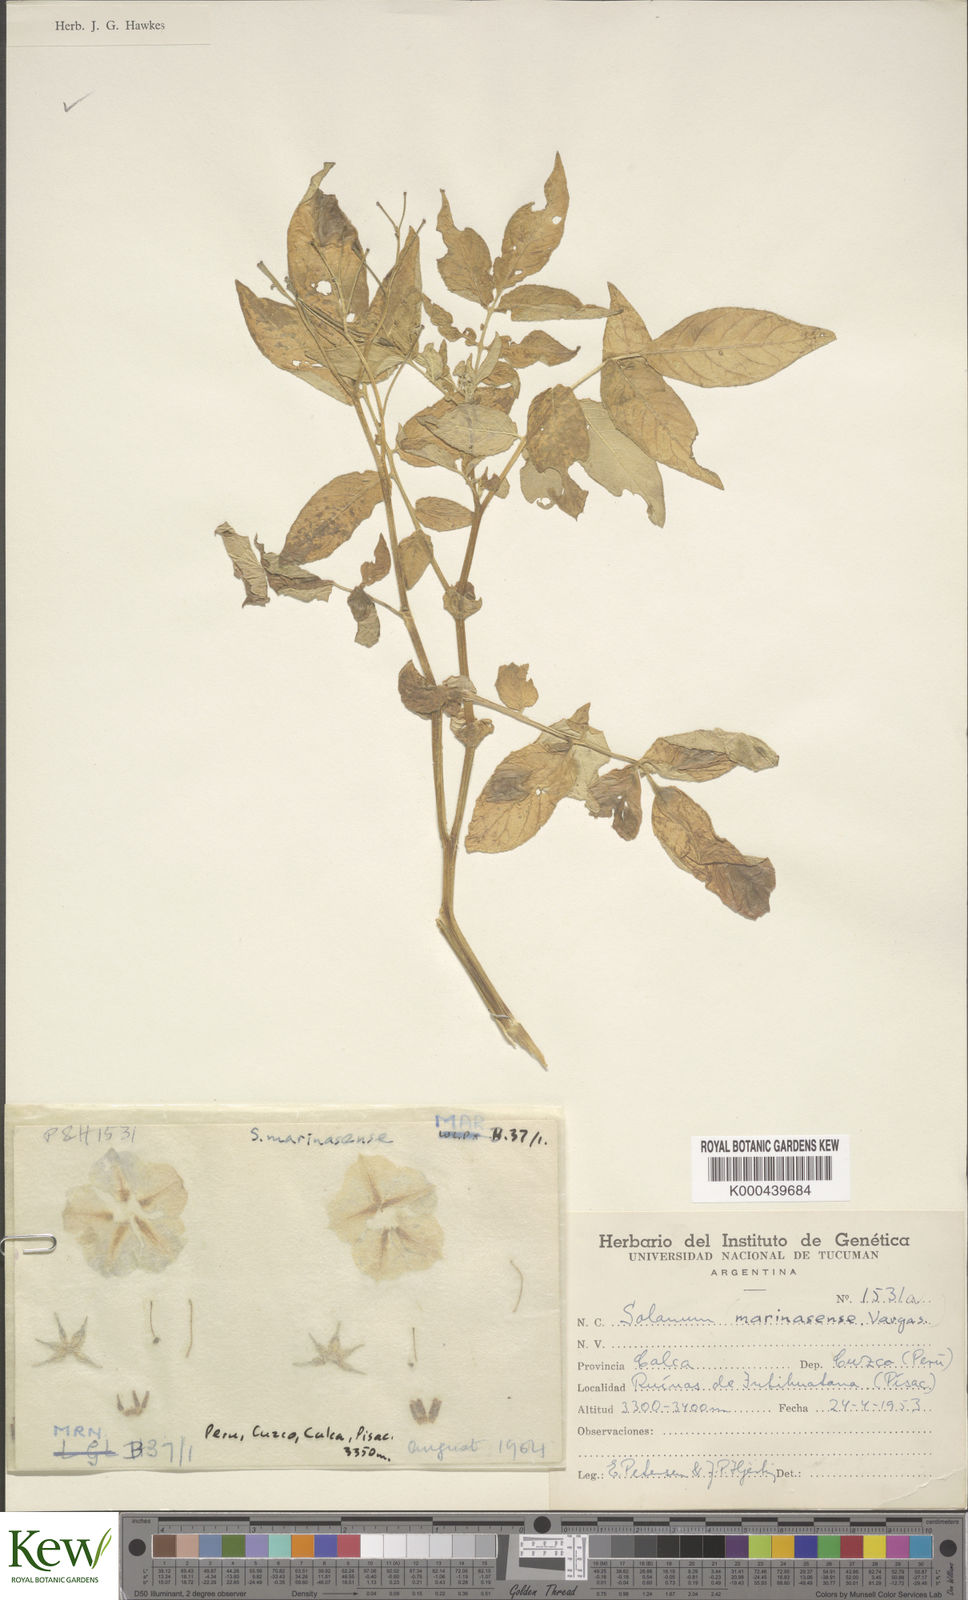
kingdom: Plantae
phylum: Tracheophyta
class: Magnoliopsida
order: Solanales
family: Solanaceae
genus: Solanum
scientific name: Solanum candolleanum
